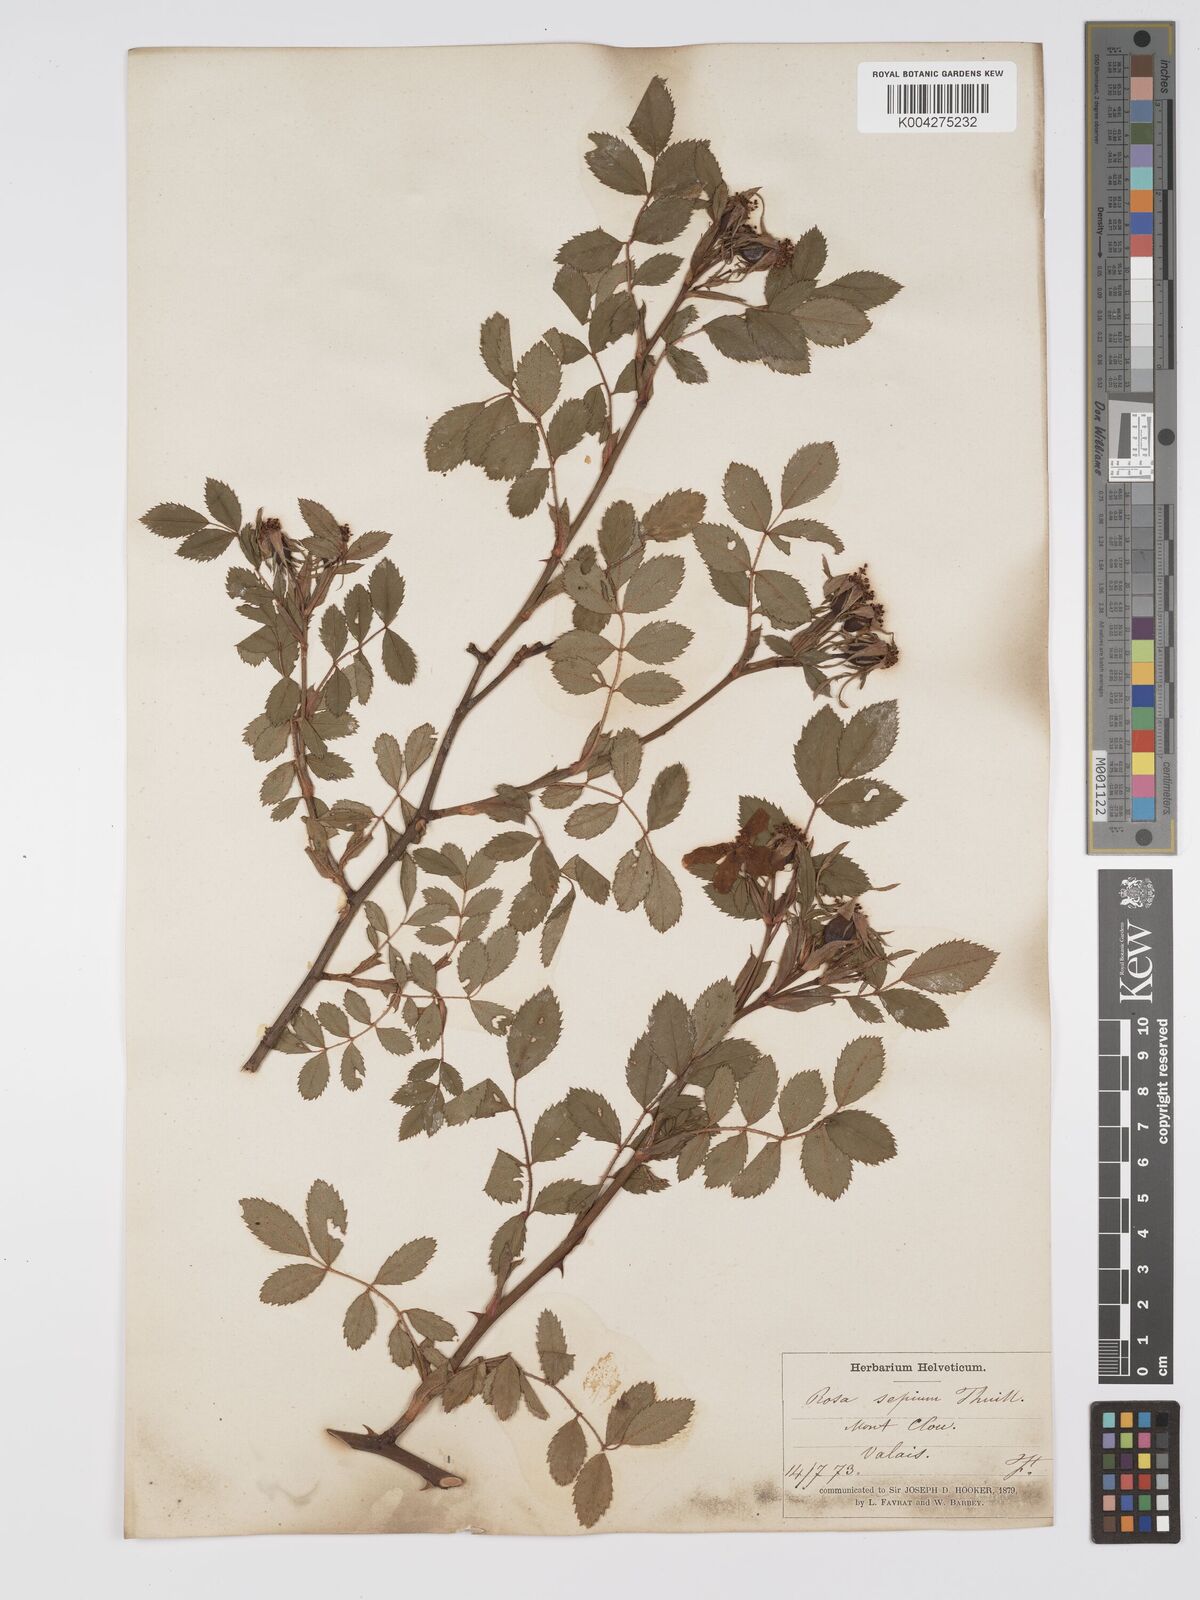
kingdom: Plantae
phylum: Tracheophyta
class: Magnoliopsida
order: Rosales
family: Rosaceae
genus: Rosa
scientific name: Rosa
